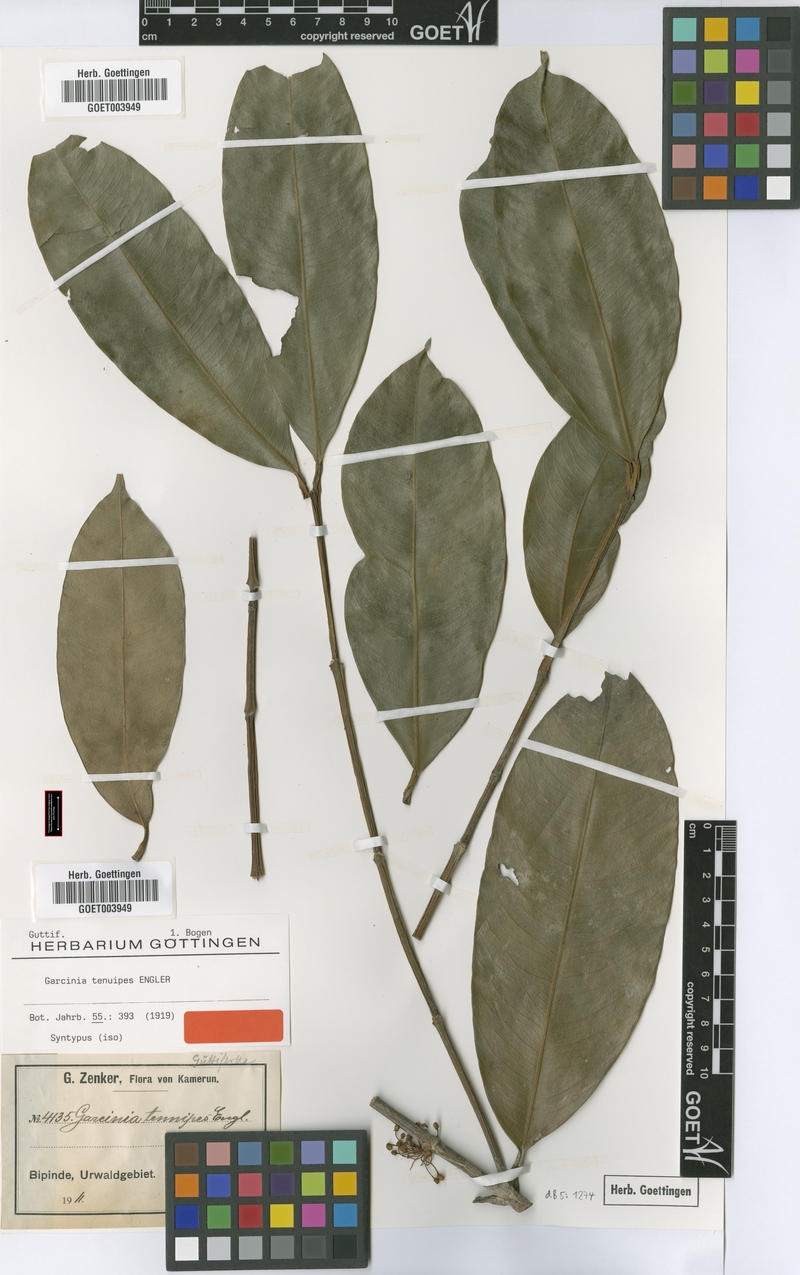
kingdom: Plantae
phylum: Tracheophyta
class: Magnoliopsida
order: Malpighiales
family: Clusiaceae
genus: Garcinia
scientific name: Garcinia smeathmannii
